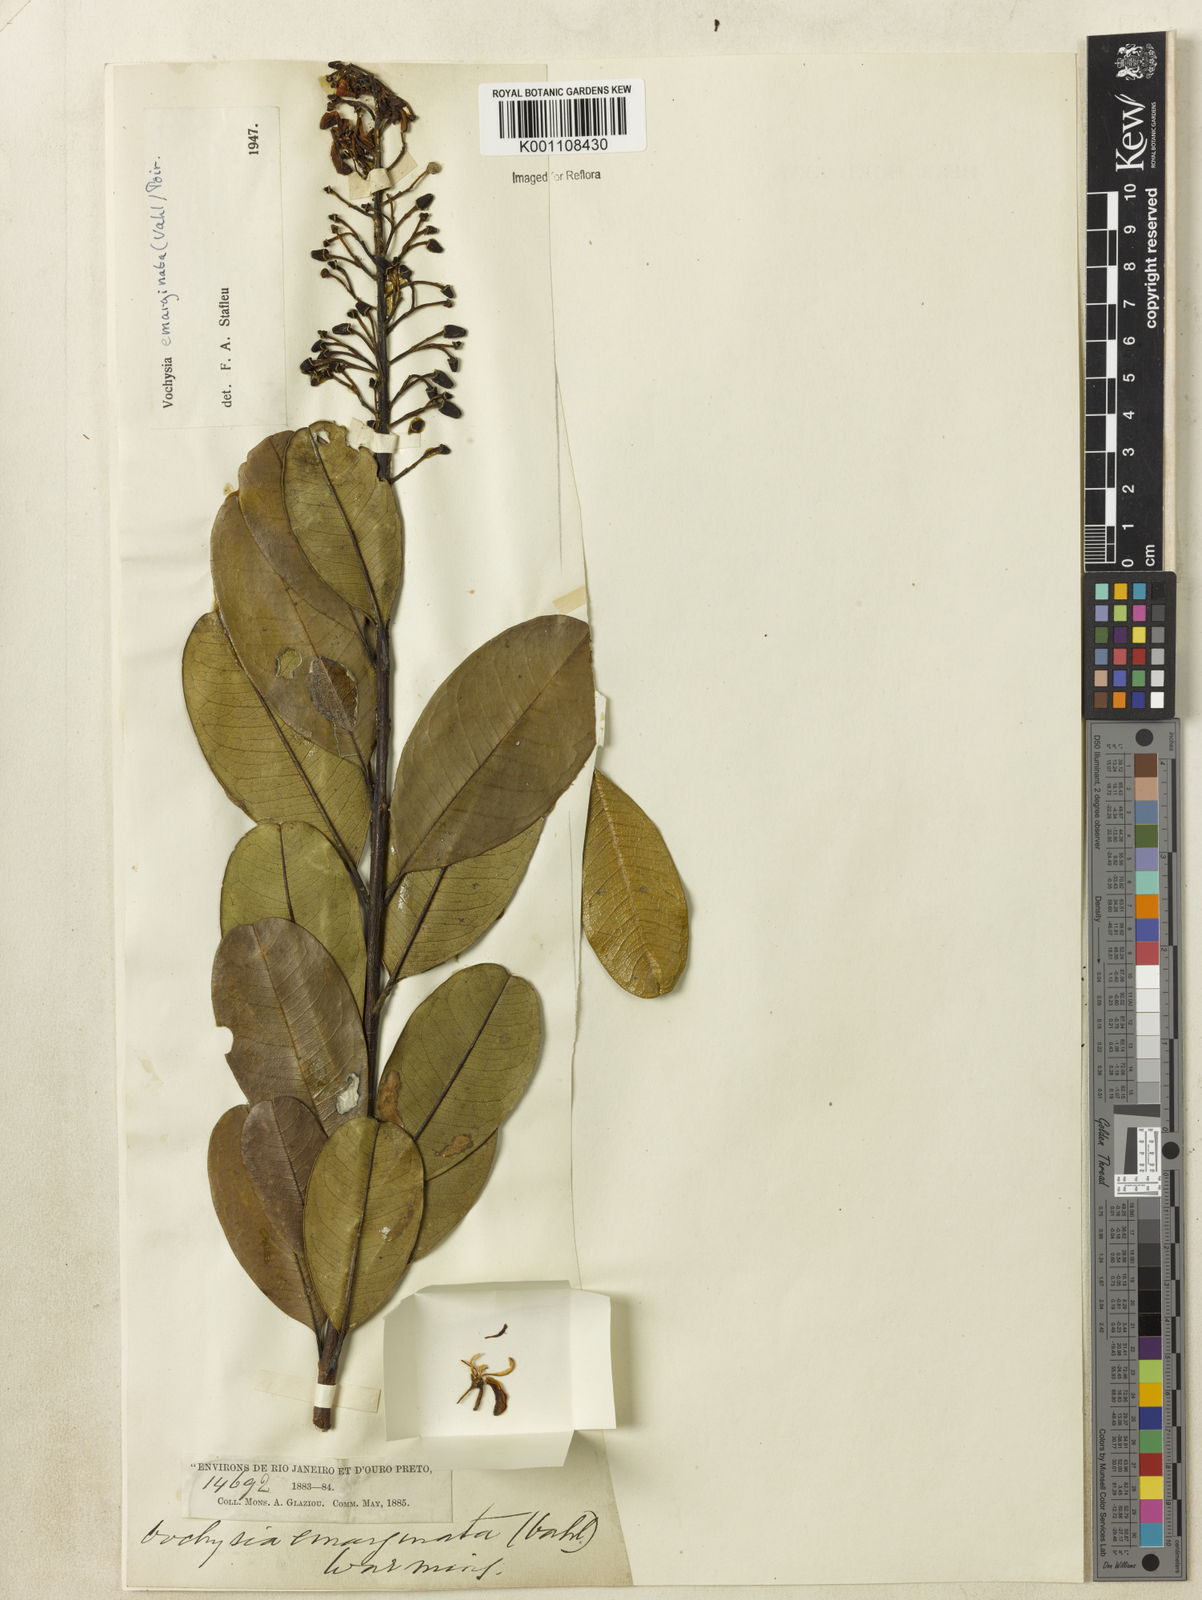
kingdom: Plantae
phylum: Tracheophyta
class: Magnoliopsida
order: Myrtales
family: Vochysiaceae
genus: Vochysia
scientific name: Vochysia
